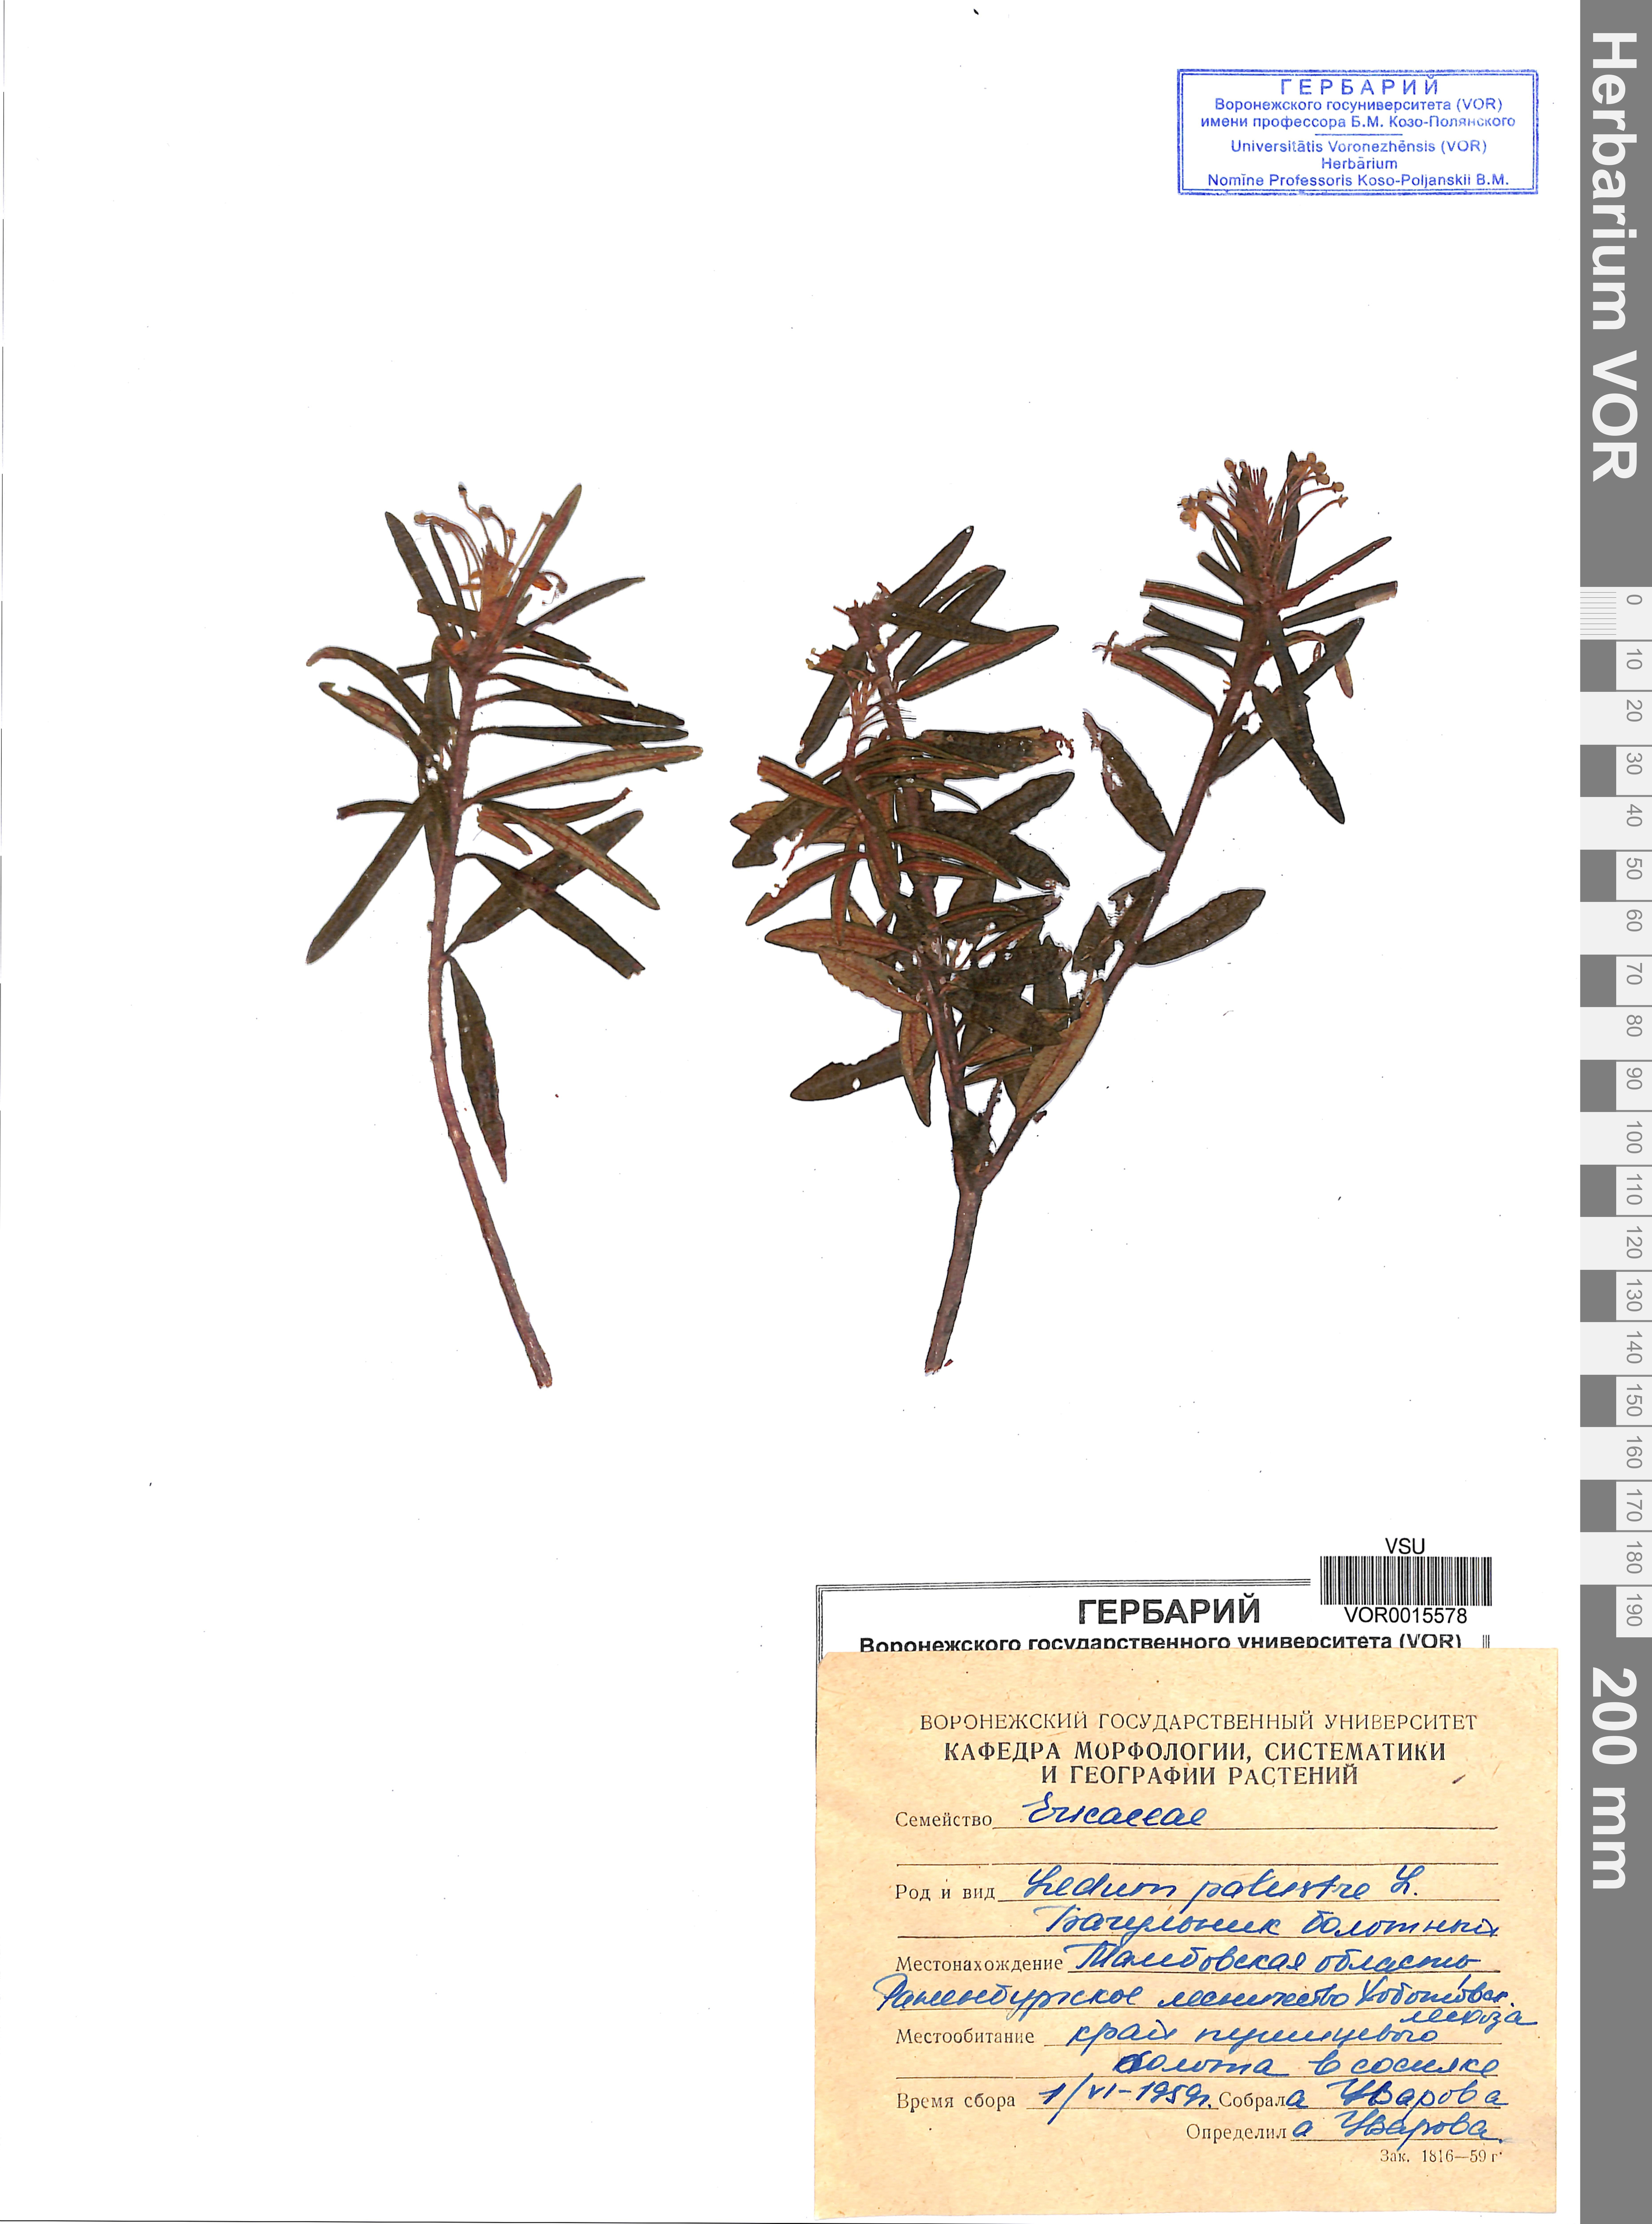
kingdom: Plantae
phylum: Tracheophyta
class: Magnoliopsida
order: Ericales
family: Ericaceae
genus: Rhododendron
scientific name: Rhododendron tomentosum
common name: Marsh labrador tea
